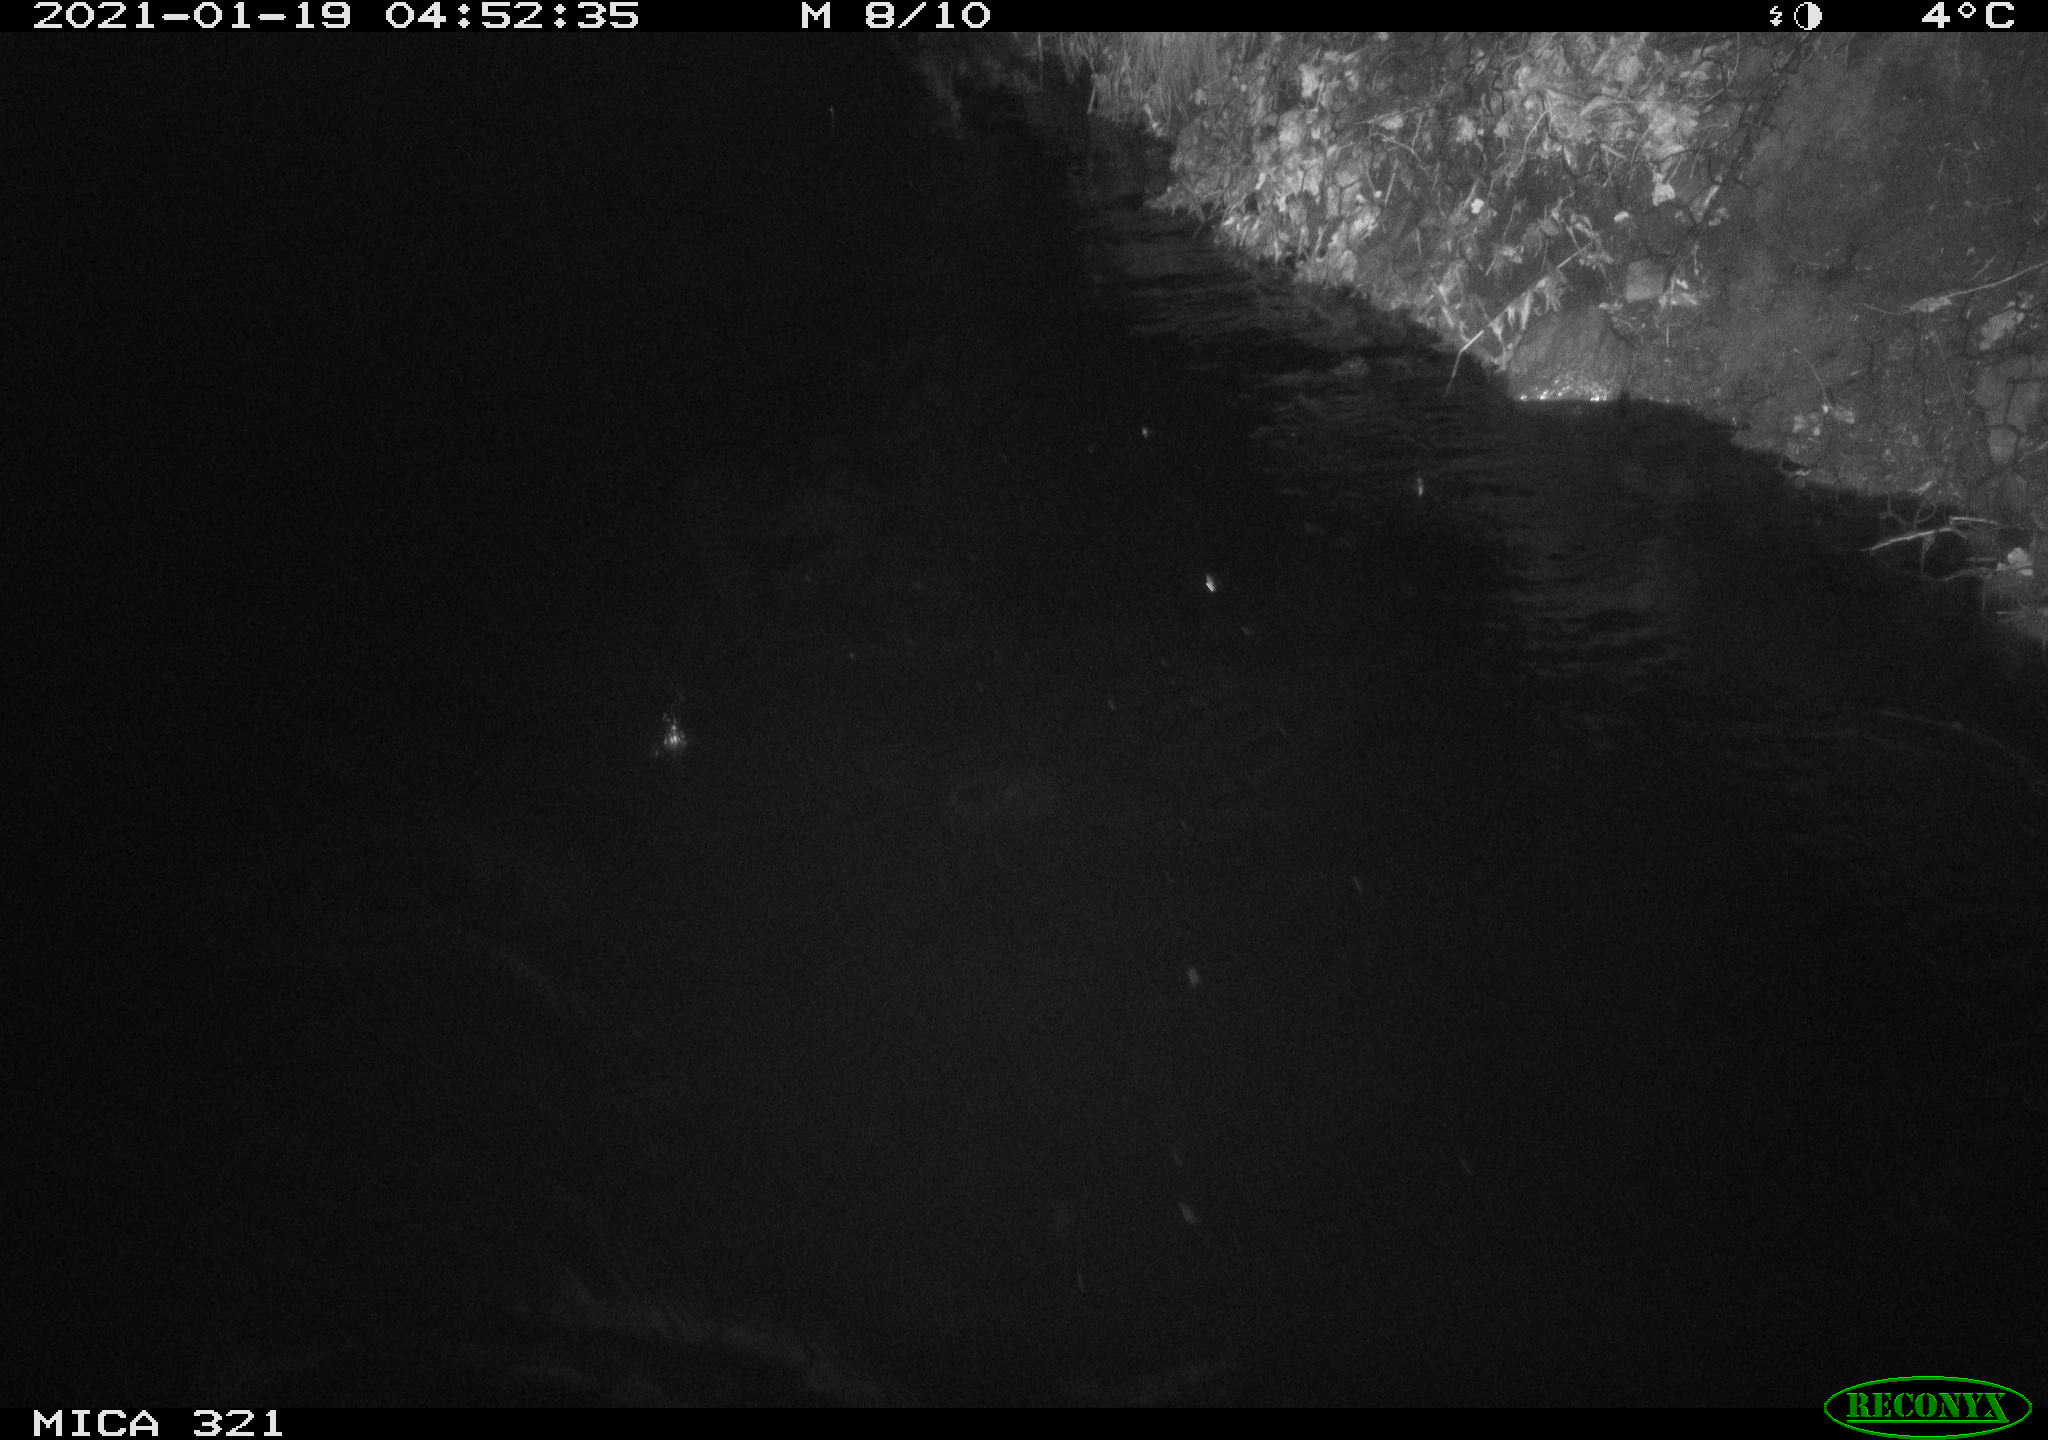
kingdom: Animalia
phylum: Chordata
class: Mammalia
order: Rodentia
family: Muridae
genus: Rattus
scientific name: Rattus norvegicus
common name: Brown rat
